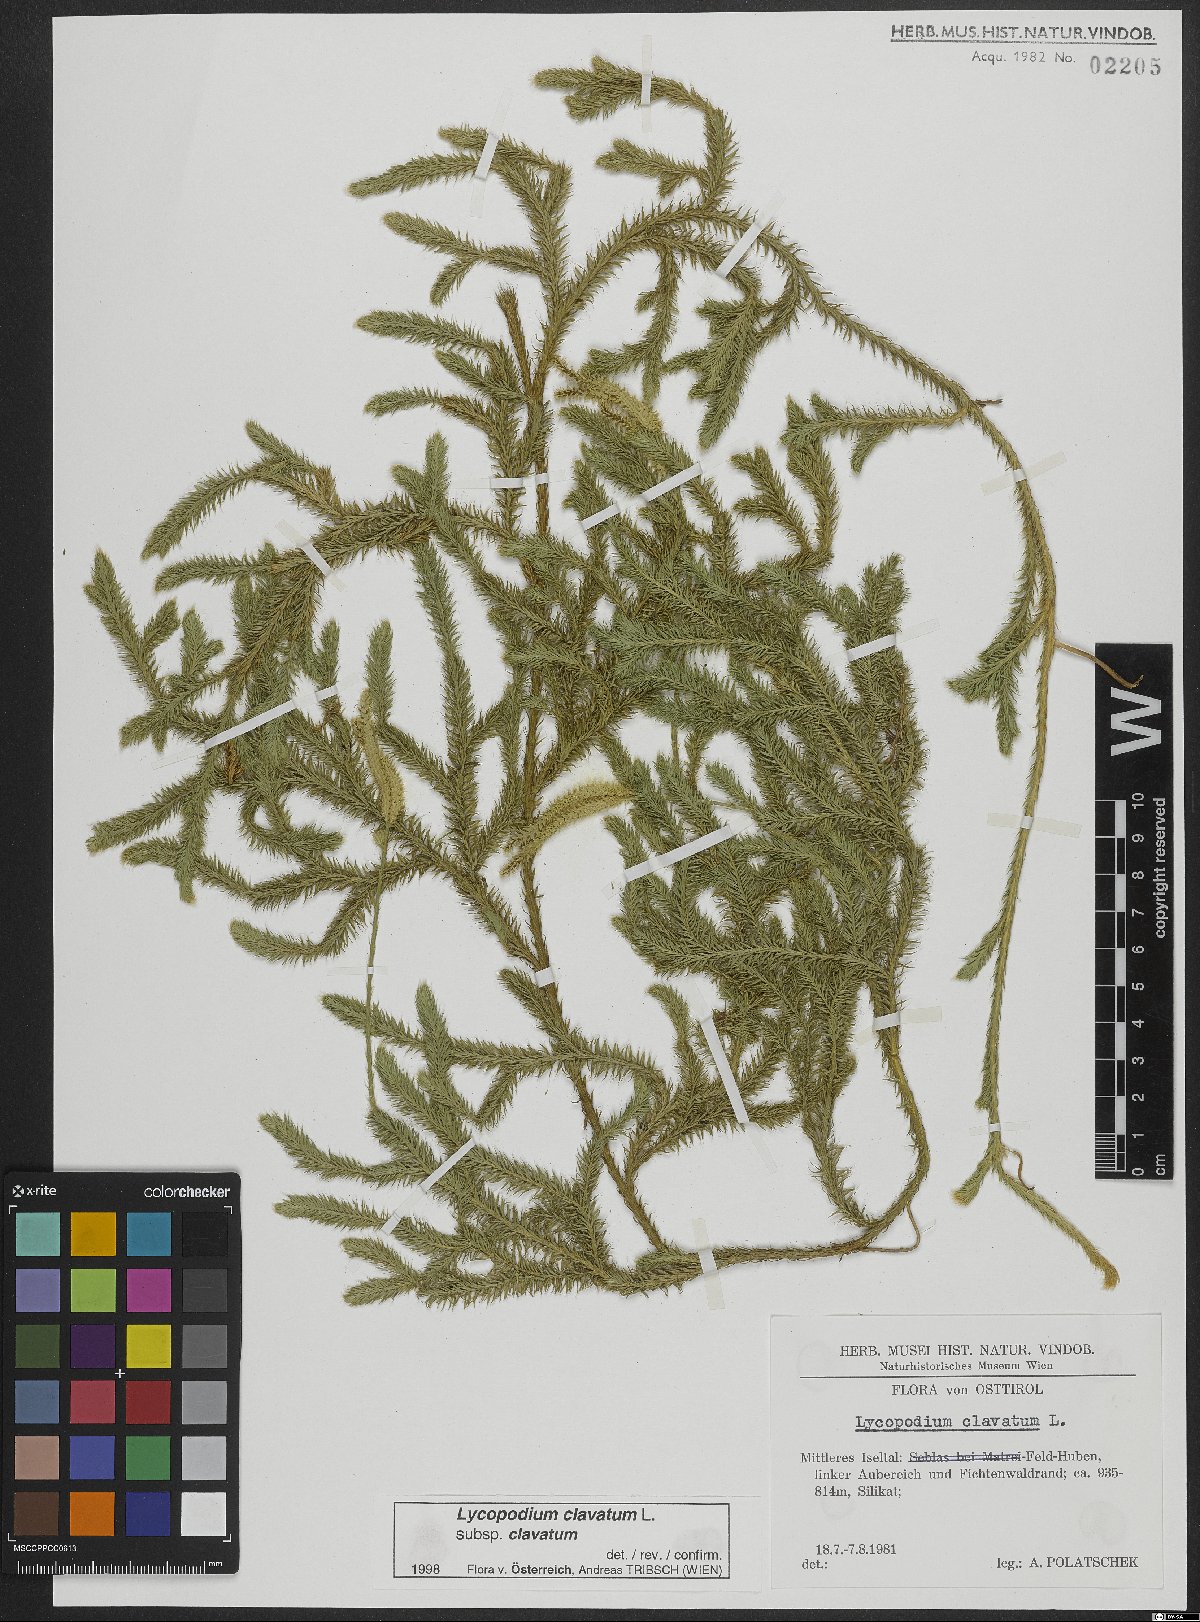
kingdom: Plantae
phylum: Tracheophyta
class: Lycopodiopsida
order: Lycopodiales
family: Lycopodiaceae
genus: Lycopodium
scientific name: Lycopodium clavatum
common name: Stag's-horn clubmoss
